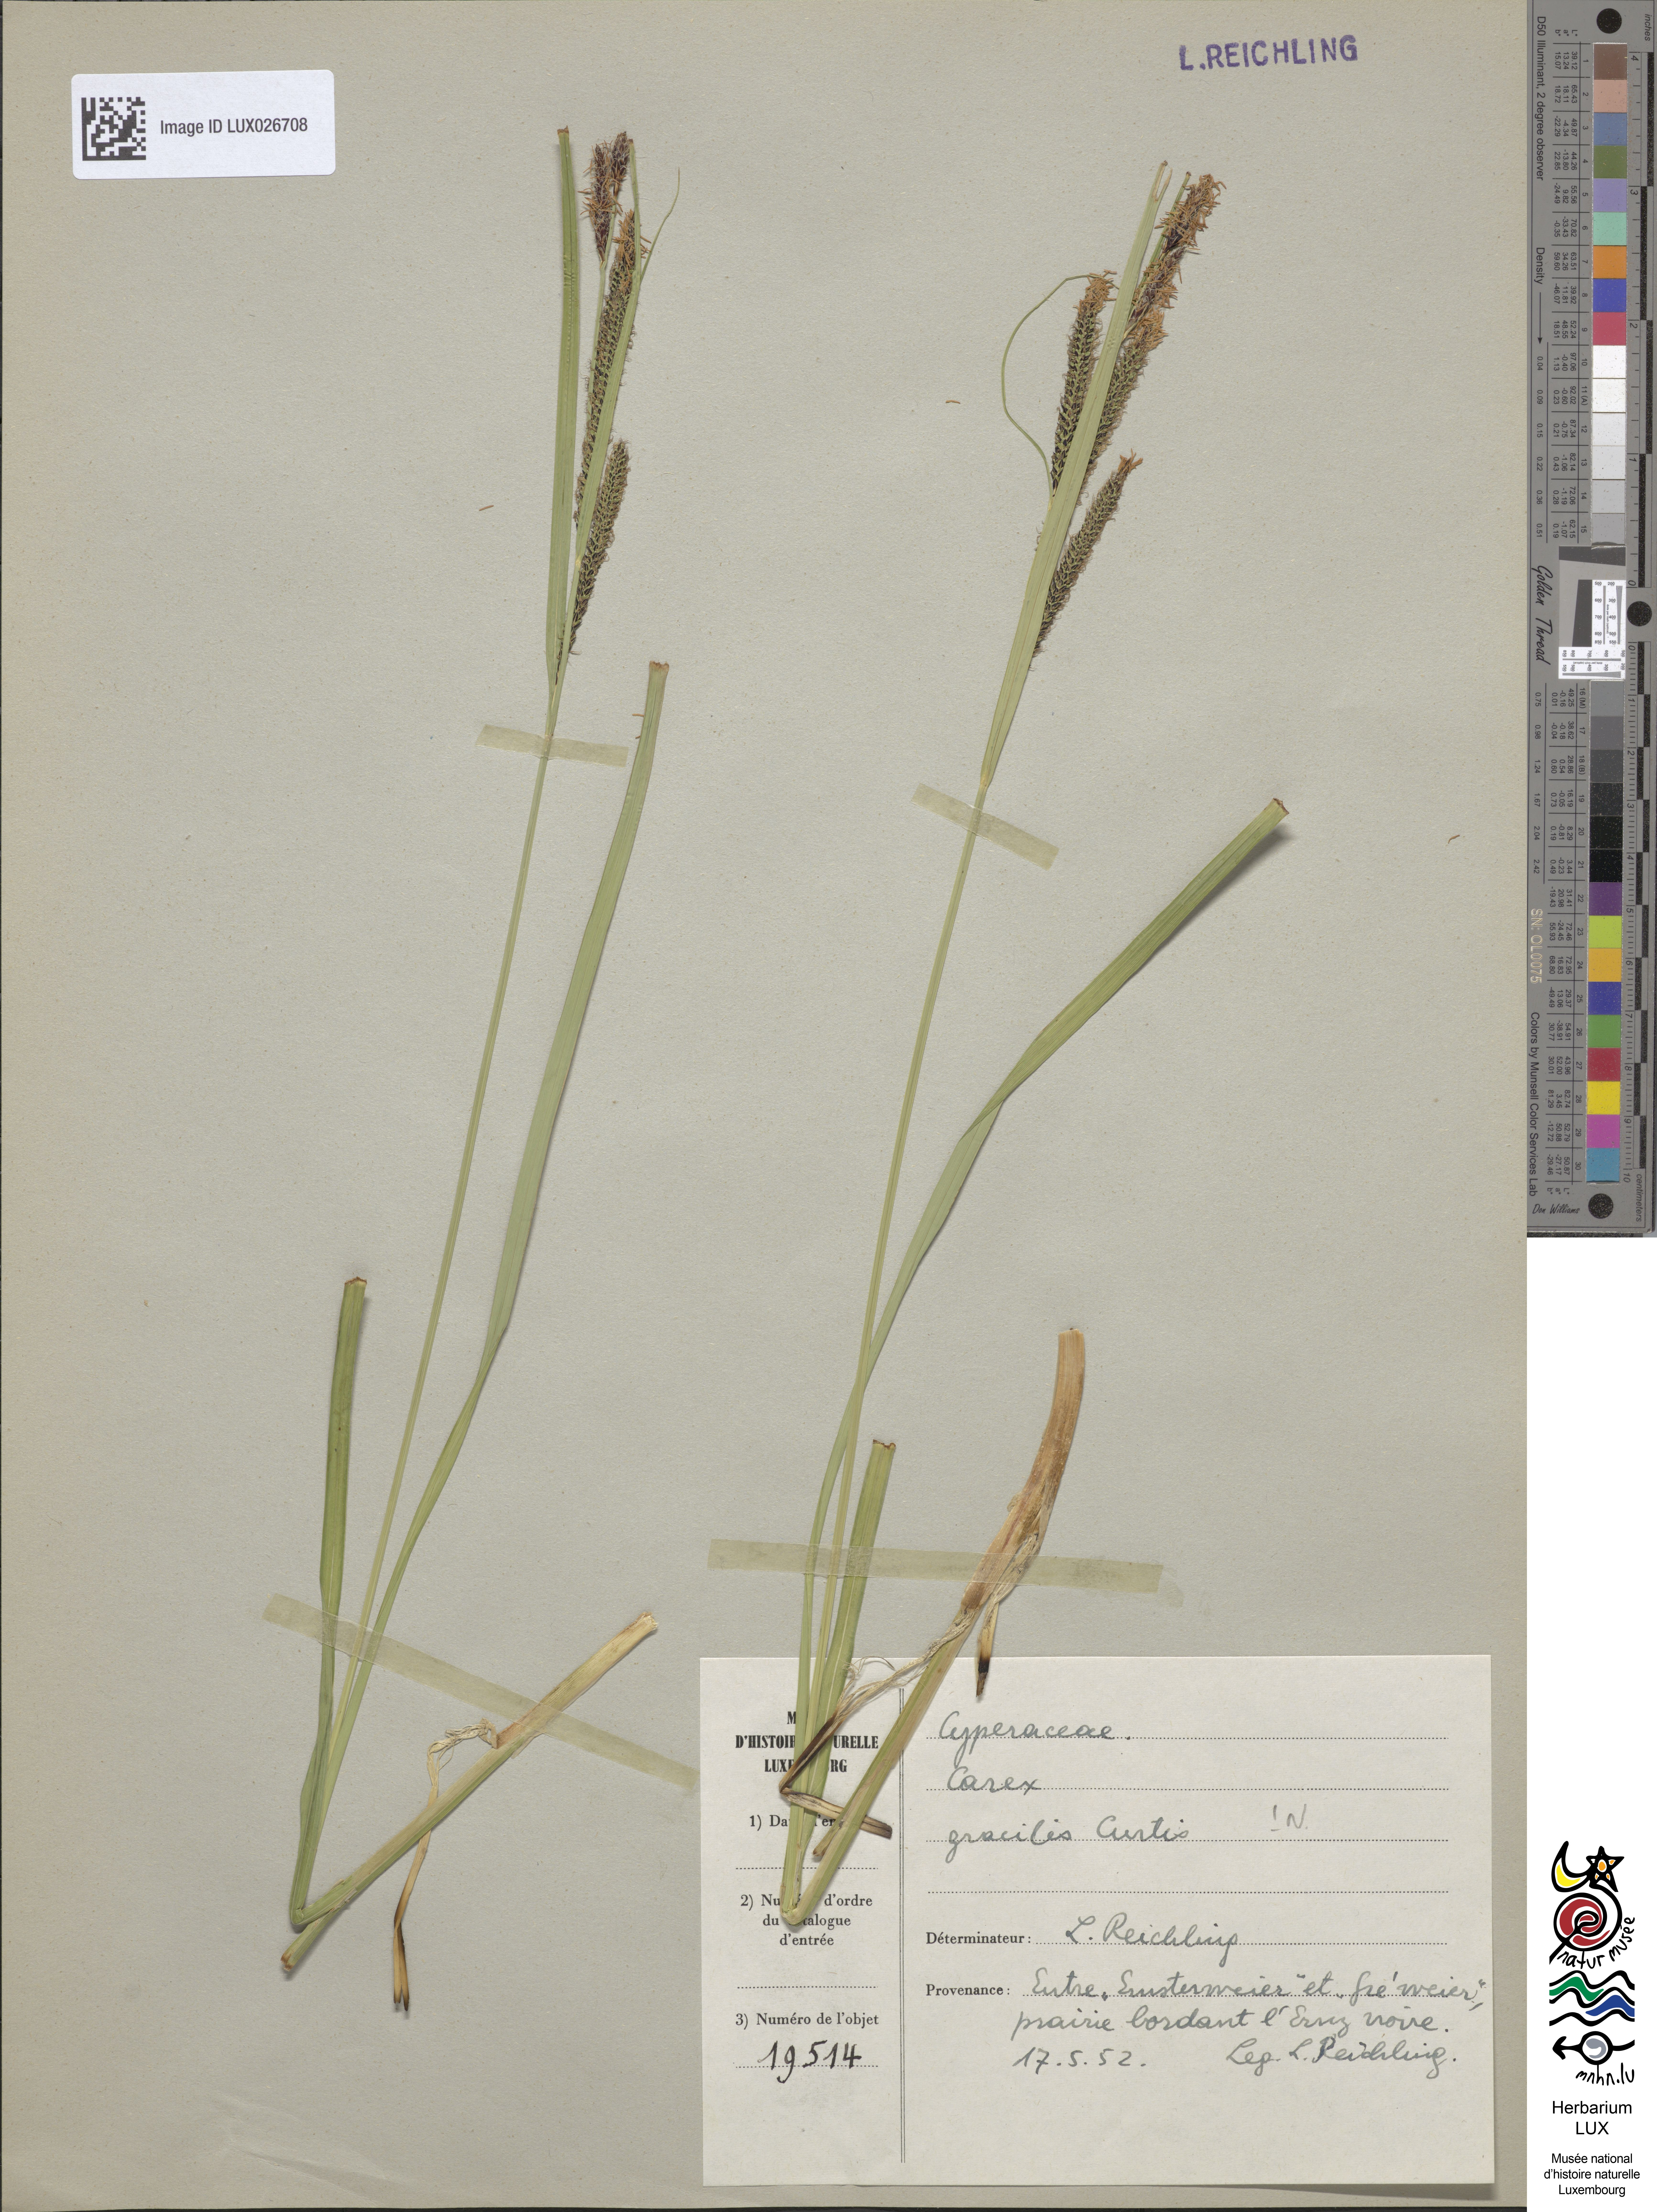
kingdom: Plantae
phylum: Tracheophyta
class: Liliopsida
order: Poales
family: Cyperaceae
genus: Carex
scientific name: Carex acuta
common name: Slender tufted-sedge
